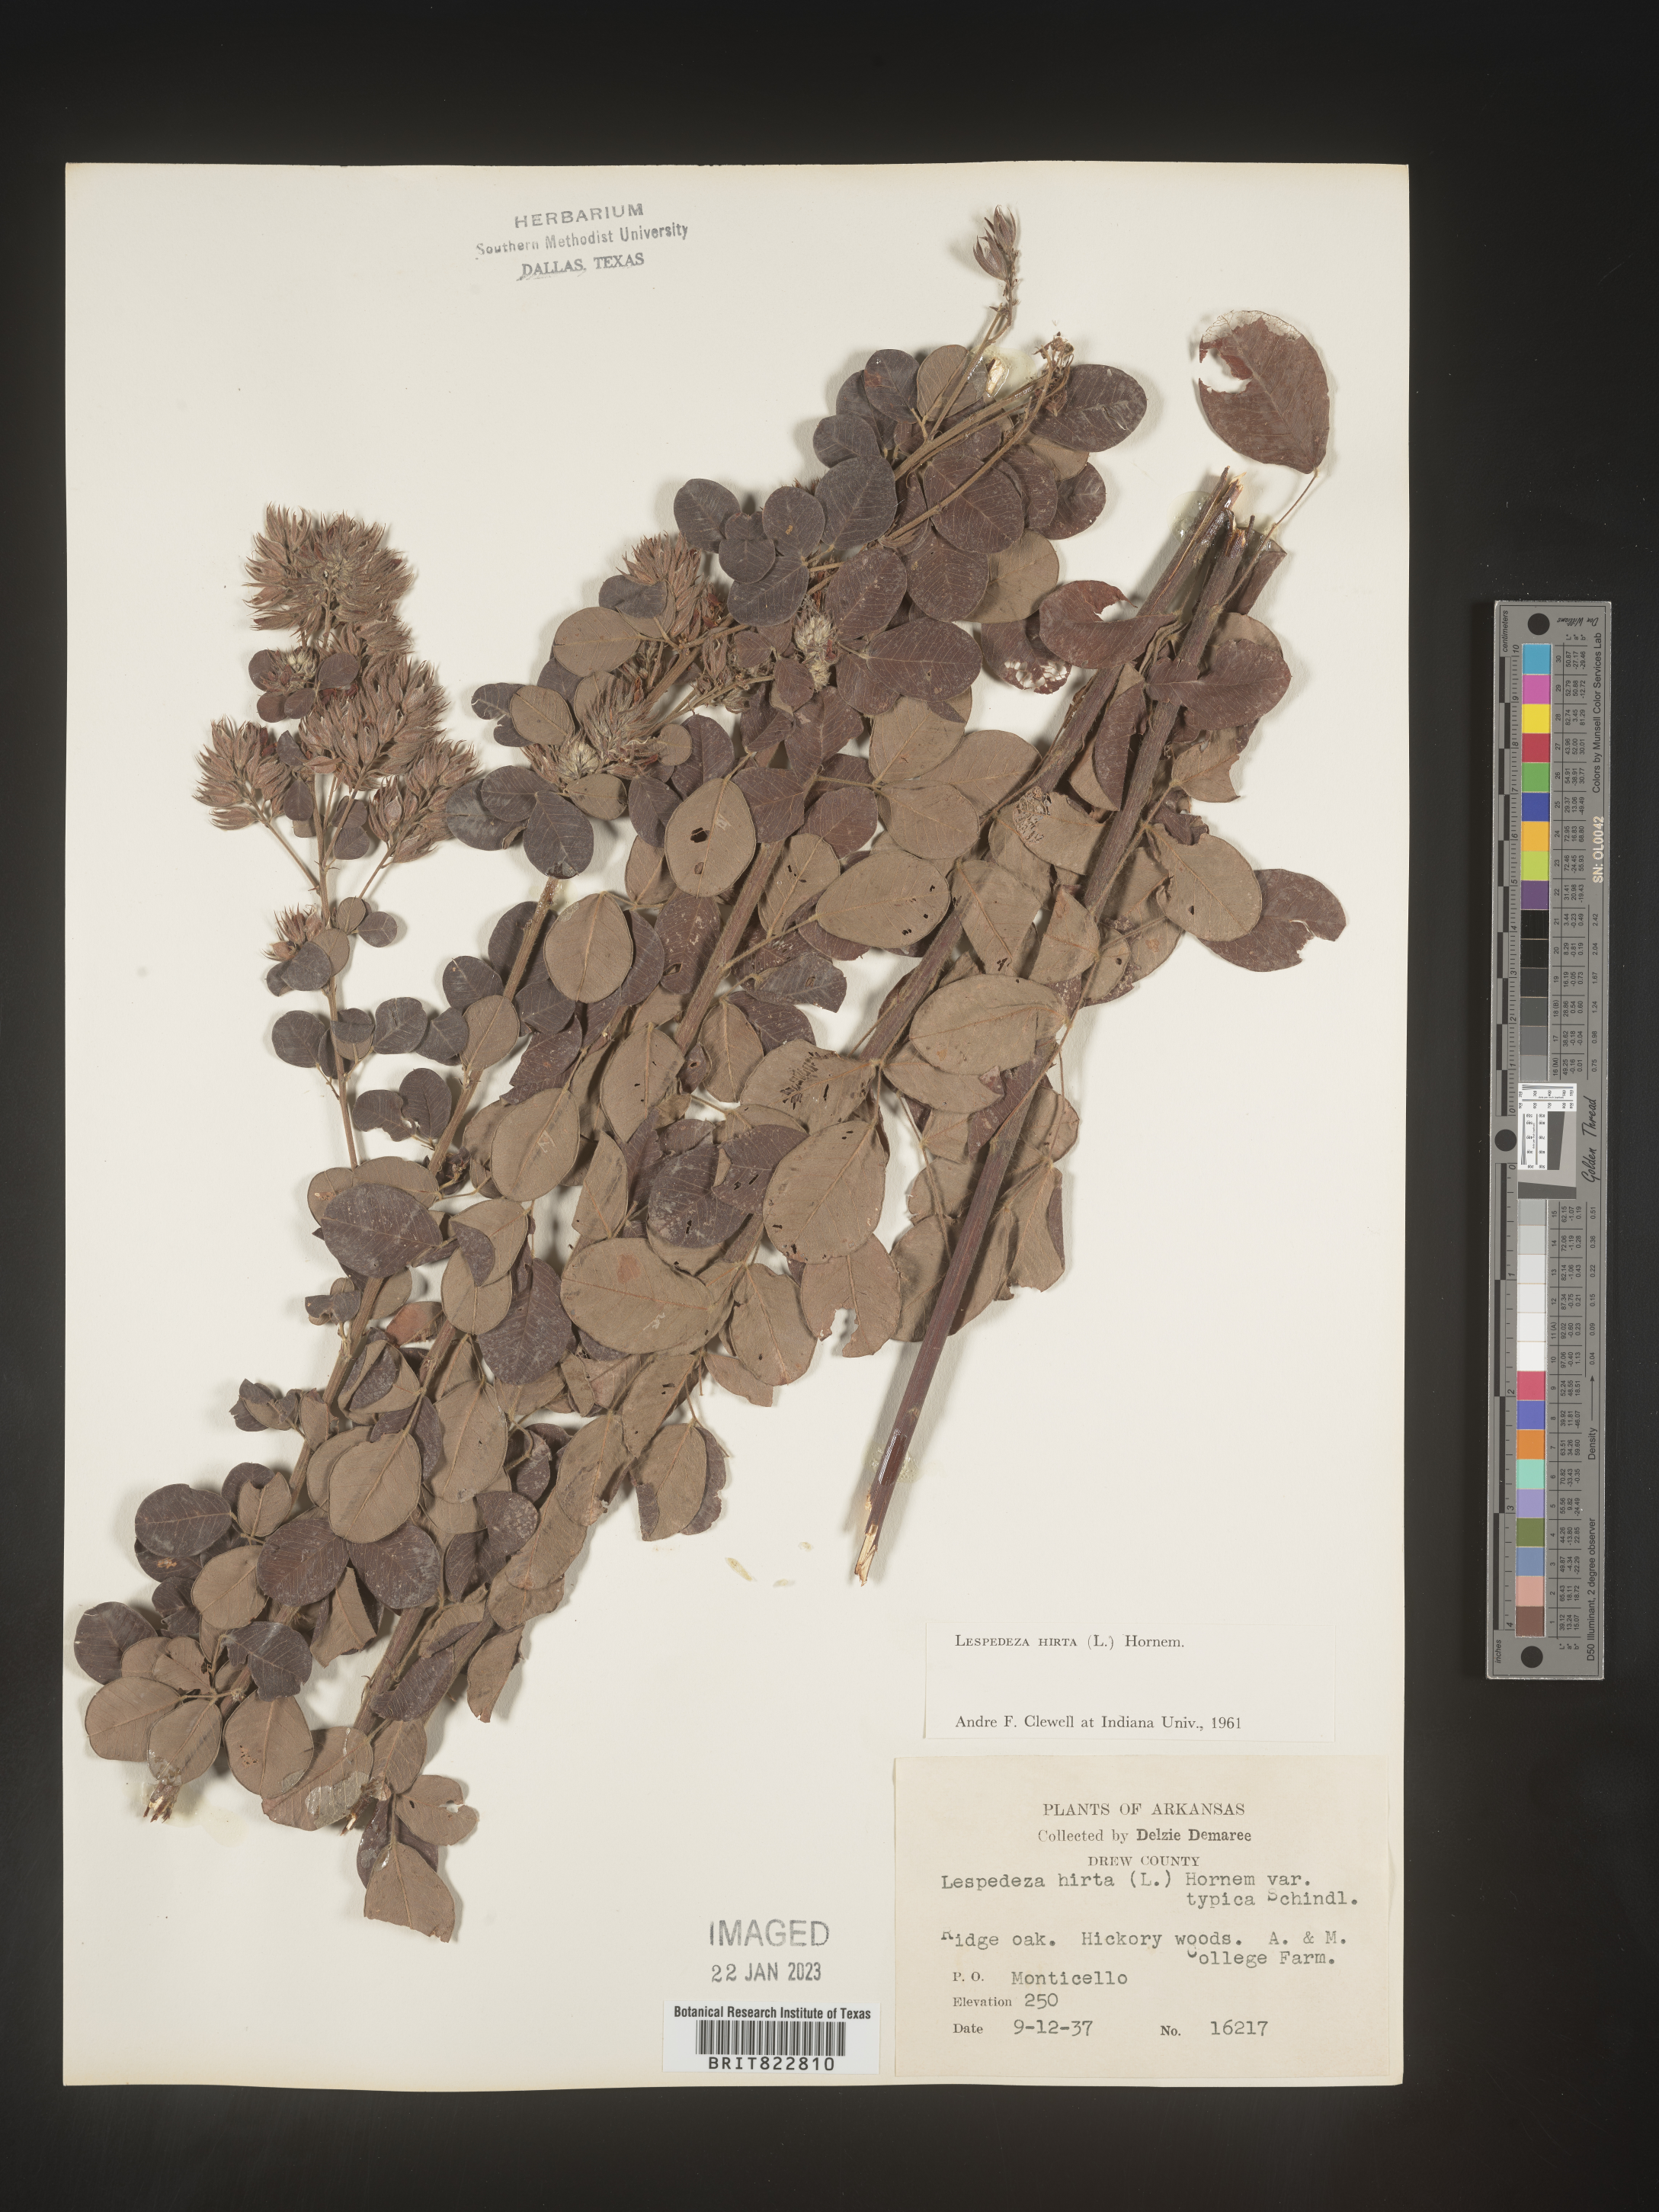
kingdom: Plantae
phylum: Tracheophyta
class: Magnoliopsida
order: Fabales
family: Fabaceae
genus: Lespedeza
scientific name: Lespedeza hirta
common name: Hairy lespedeza
